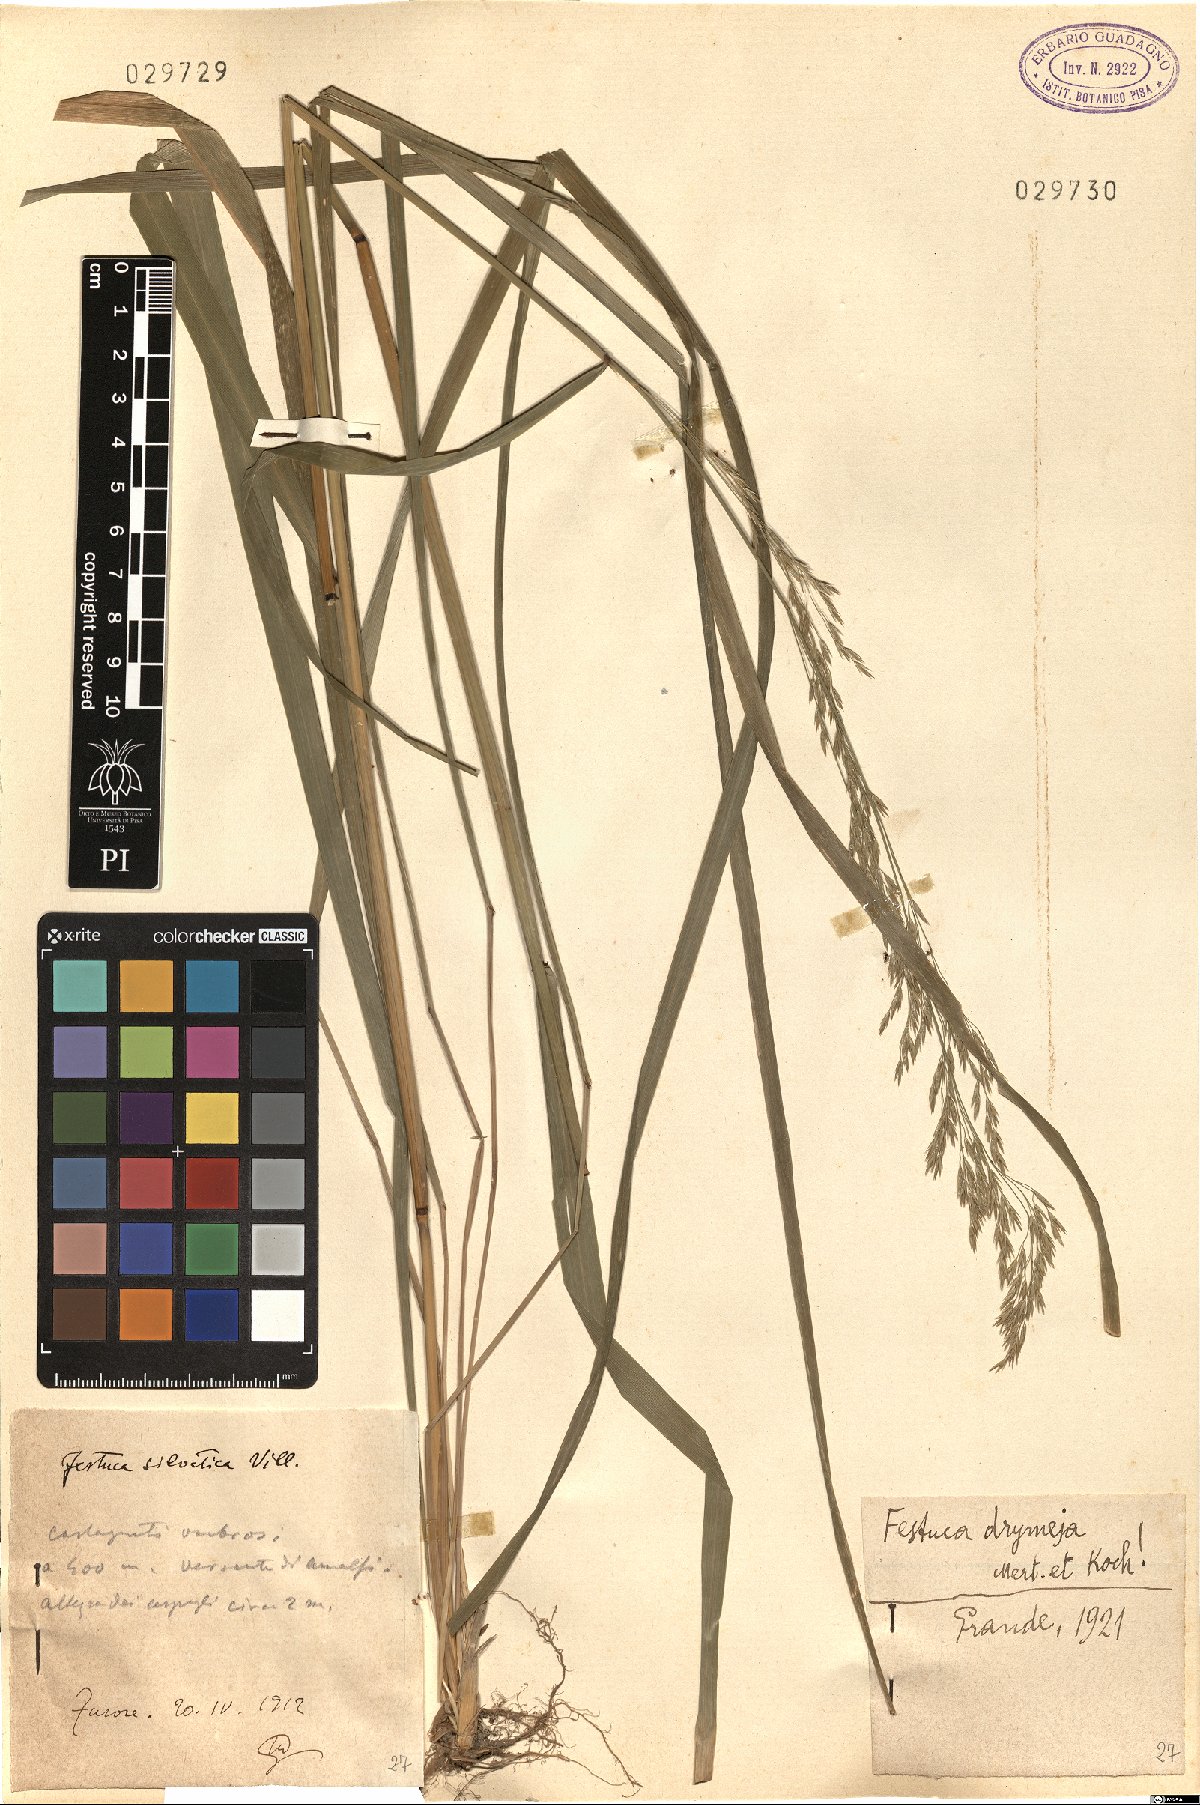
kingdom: Plantae
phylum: Tracheophyta
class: Liliopsida
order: Poales
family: Poaceae
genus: Festuca
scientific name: Festuca drymeja
